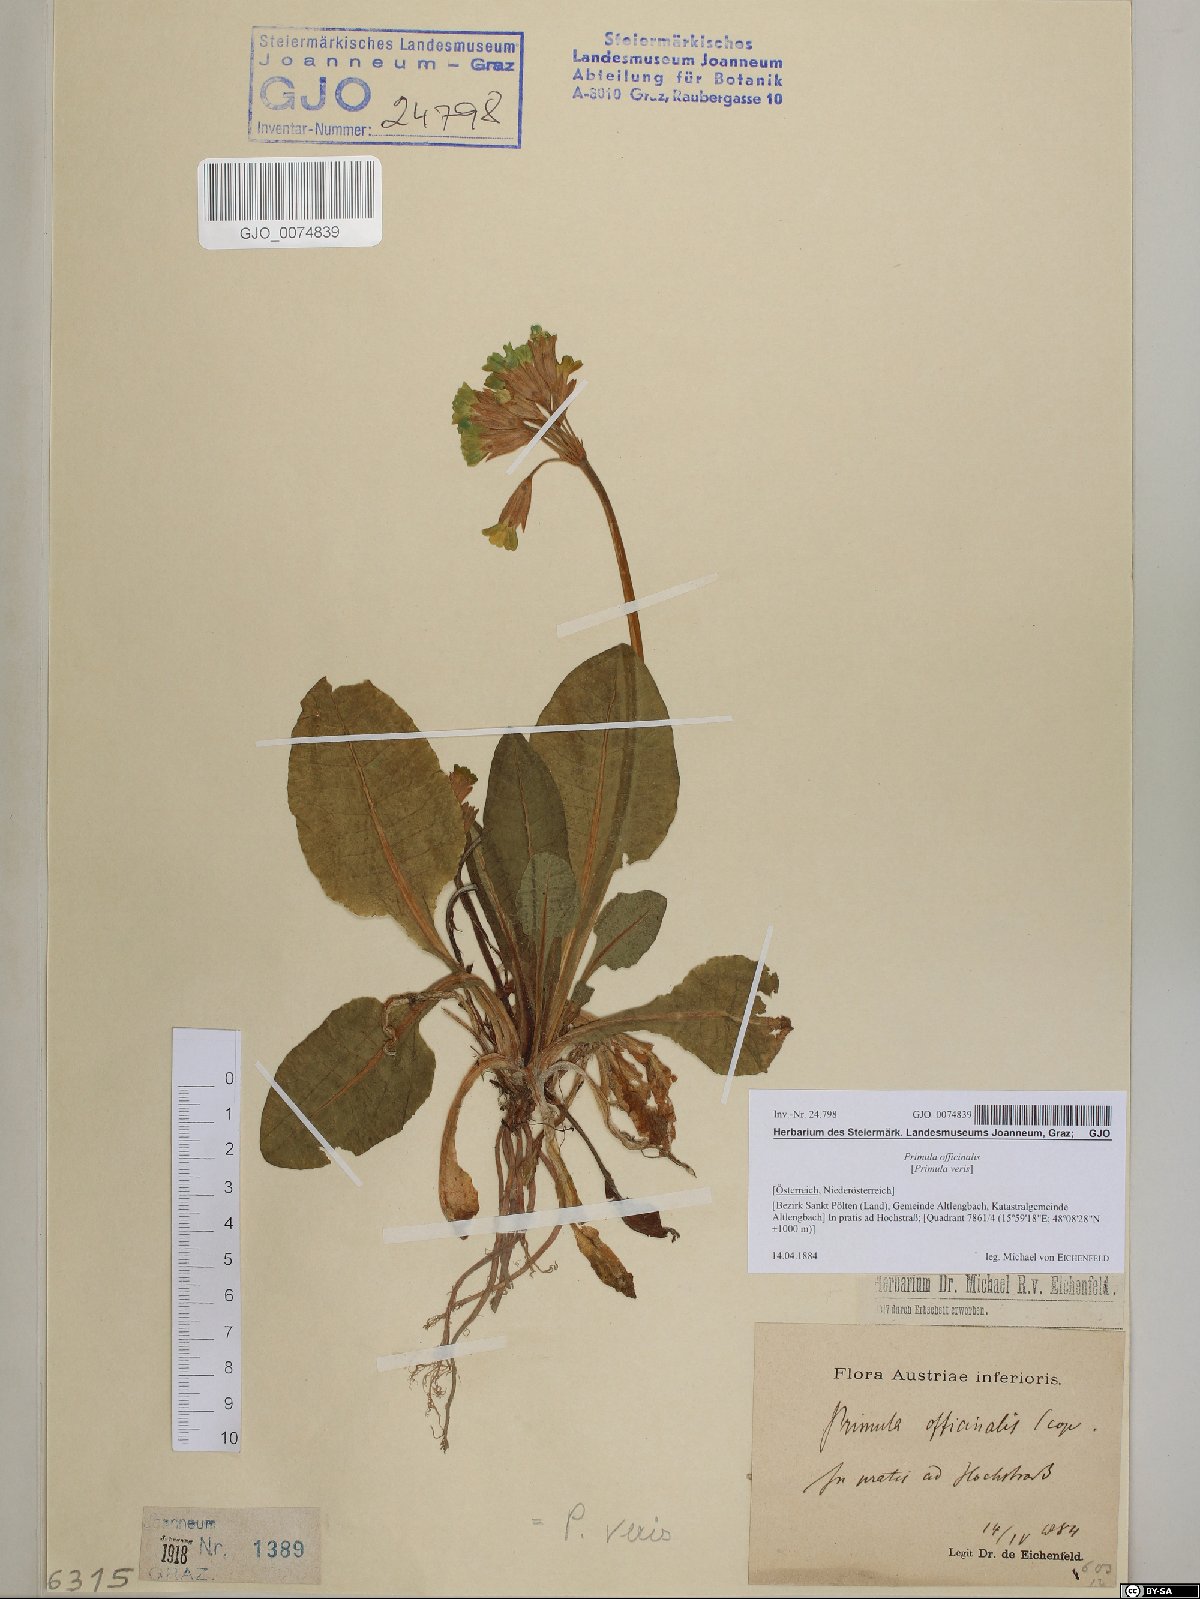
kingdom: Plantae
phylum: Tracheophyta
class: Magnoliopsida
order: Ericales
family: Primulaceae
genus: Primula
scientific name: Primula veris
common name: Cowslip
